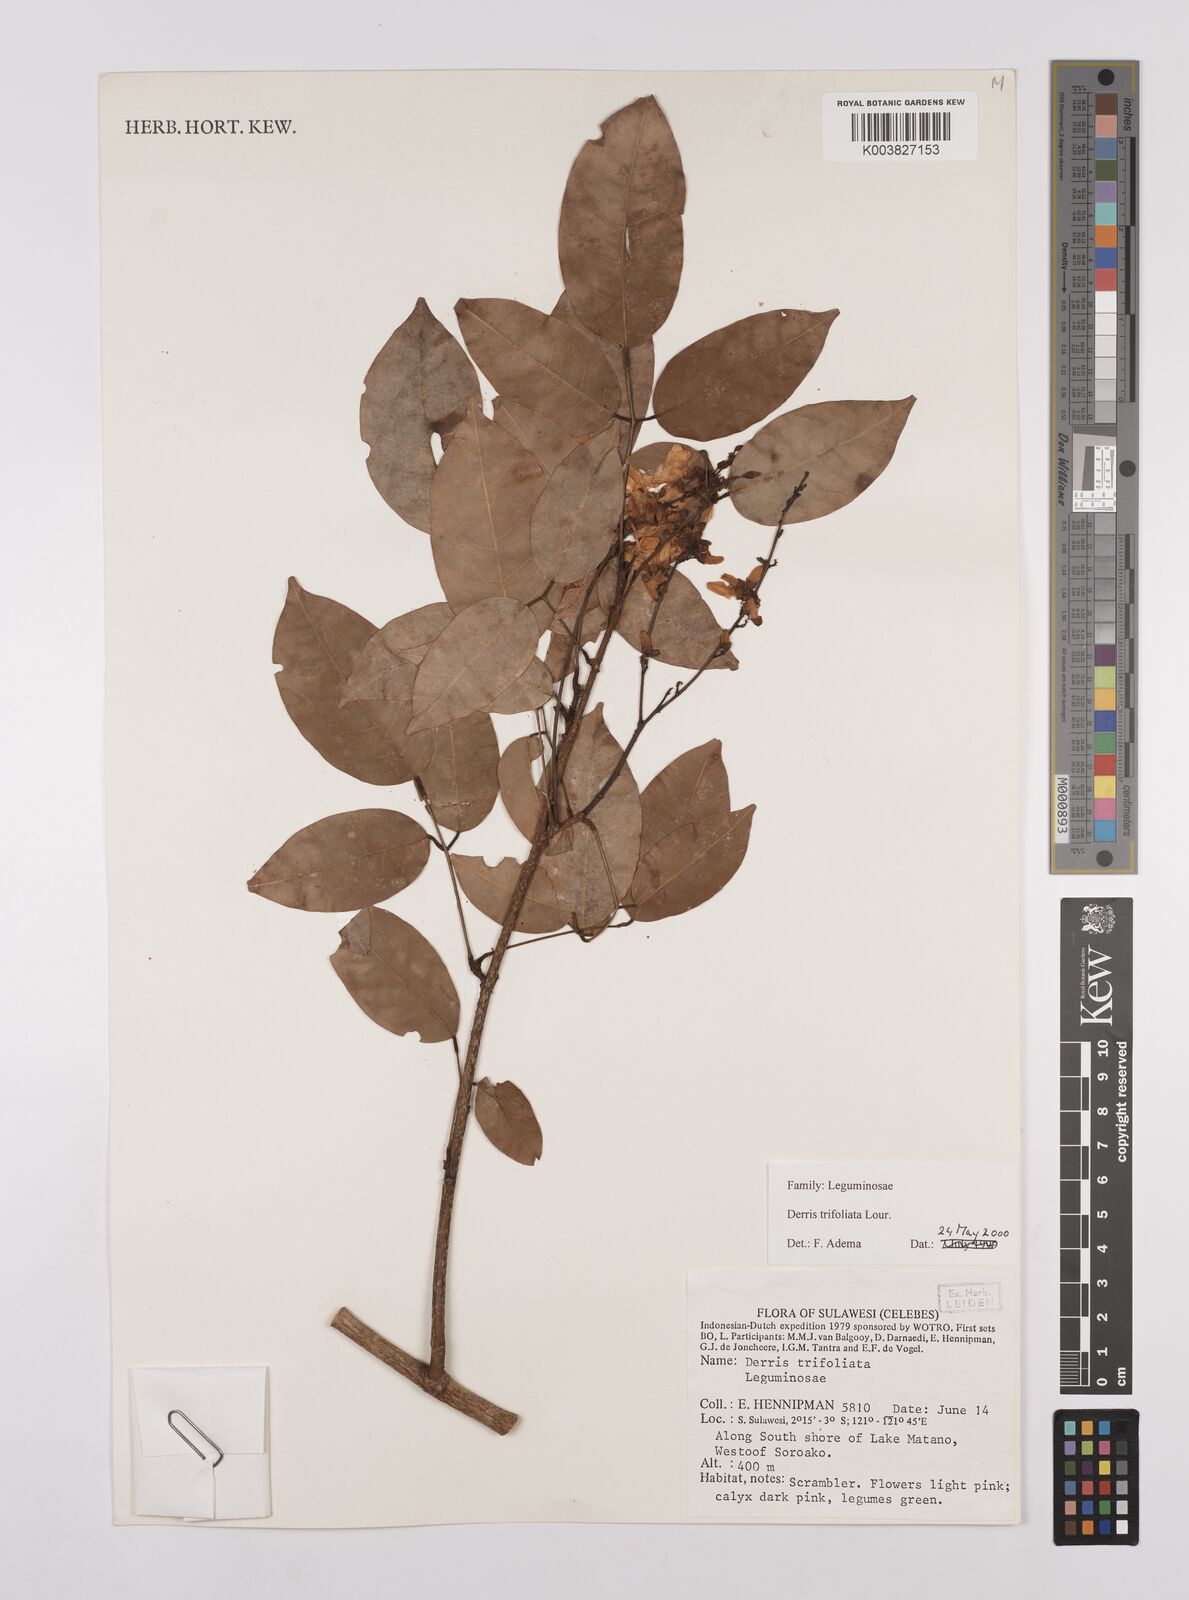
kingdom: Plantae
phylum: Tracheophyta
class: Magnoliopsida
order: Fabales
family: Fabaceae
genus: Derris
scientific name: Derris trifoliata
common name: Three-leaf derris
